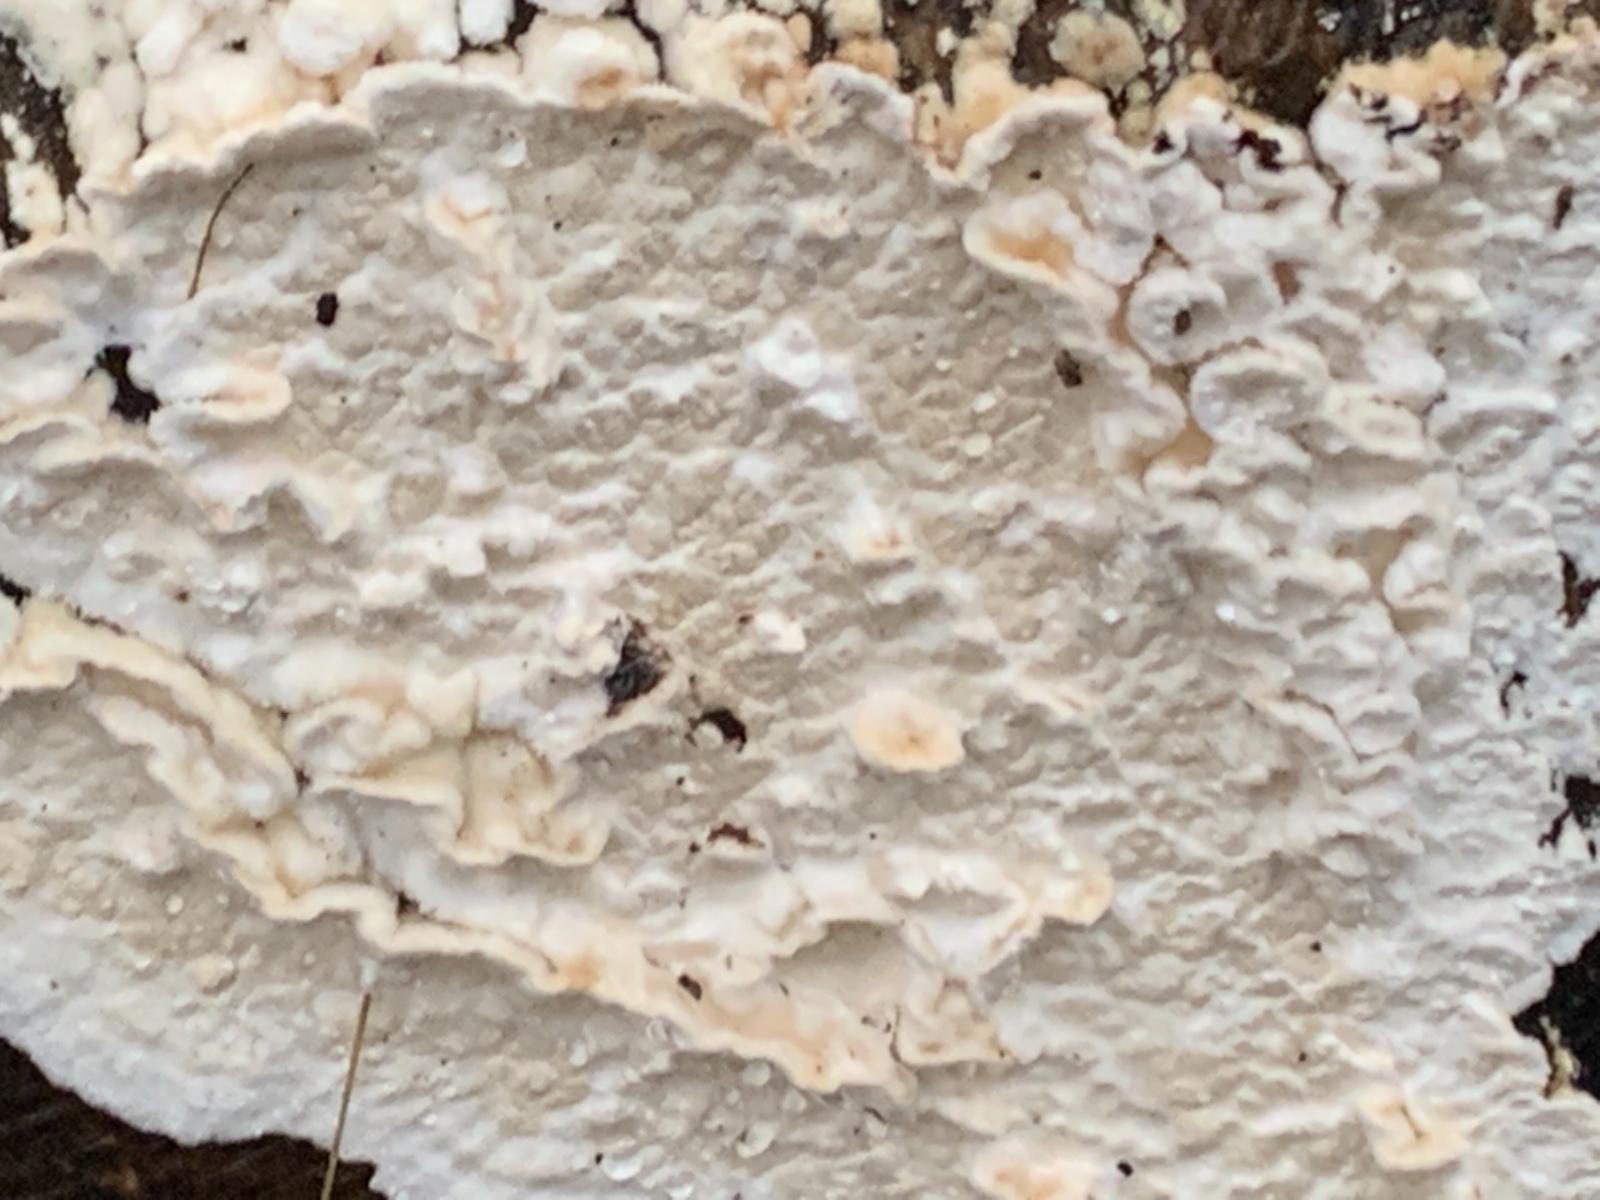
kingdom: Fungi
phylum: Basidiomycota
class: Agaricomycetes
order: Agaricales
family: Physalacriaceae
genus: Cylindrobasidium
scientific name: Cylindrobasidium evolvens
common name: sprækkehinde
